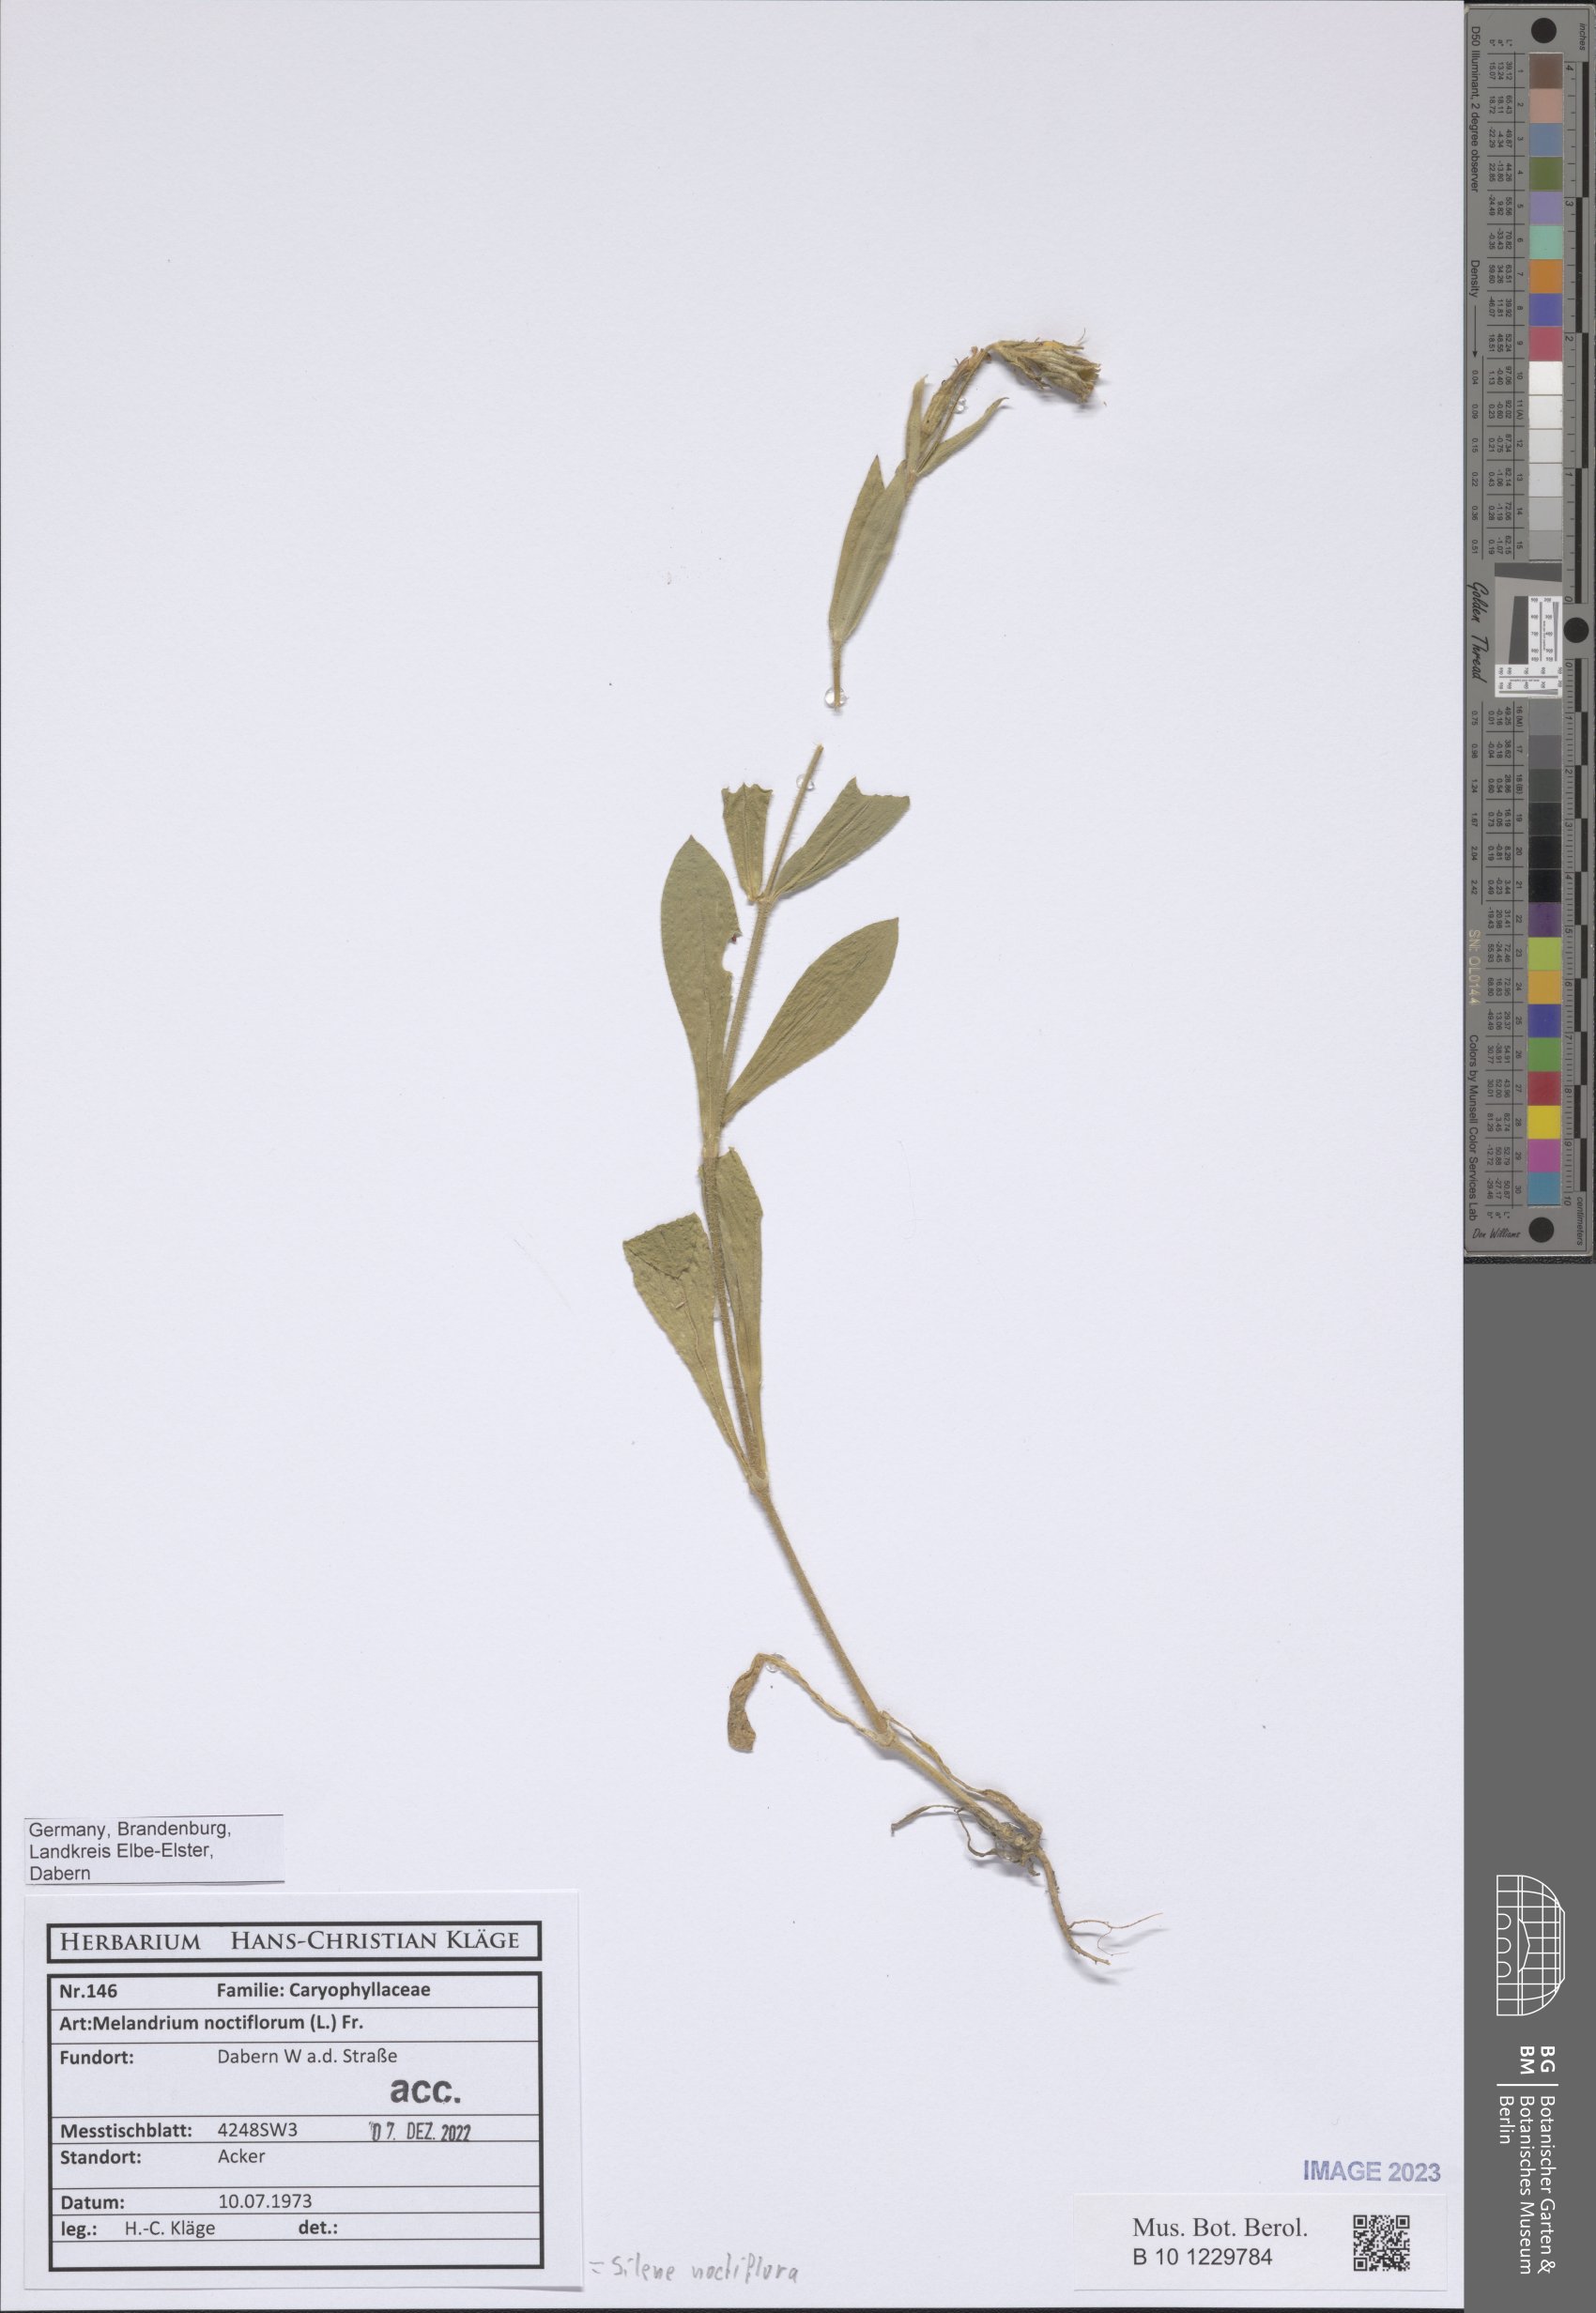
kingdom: Plantae
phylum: Tracheophyta
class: Magnoliopsida
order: Caryophyllales
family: Caryophyllaceae
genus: Silene
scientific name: Silene noctiflora
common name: Night-flowering catchfly
